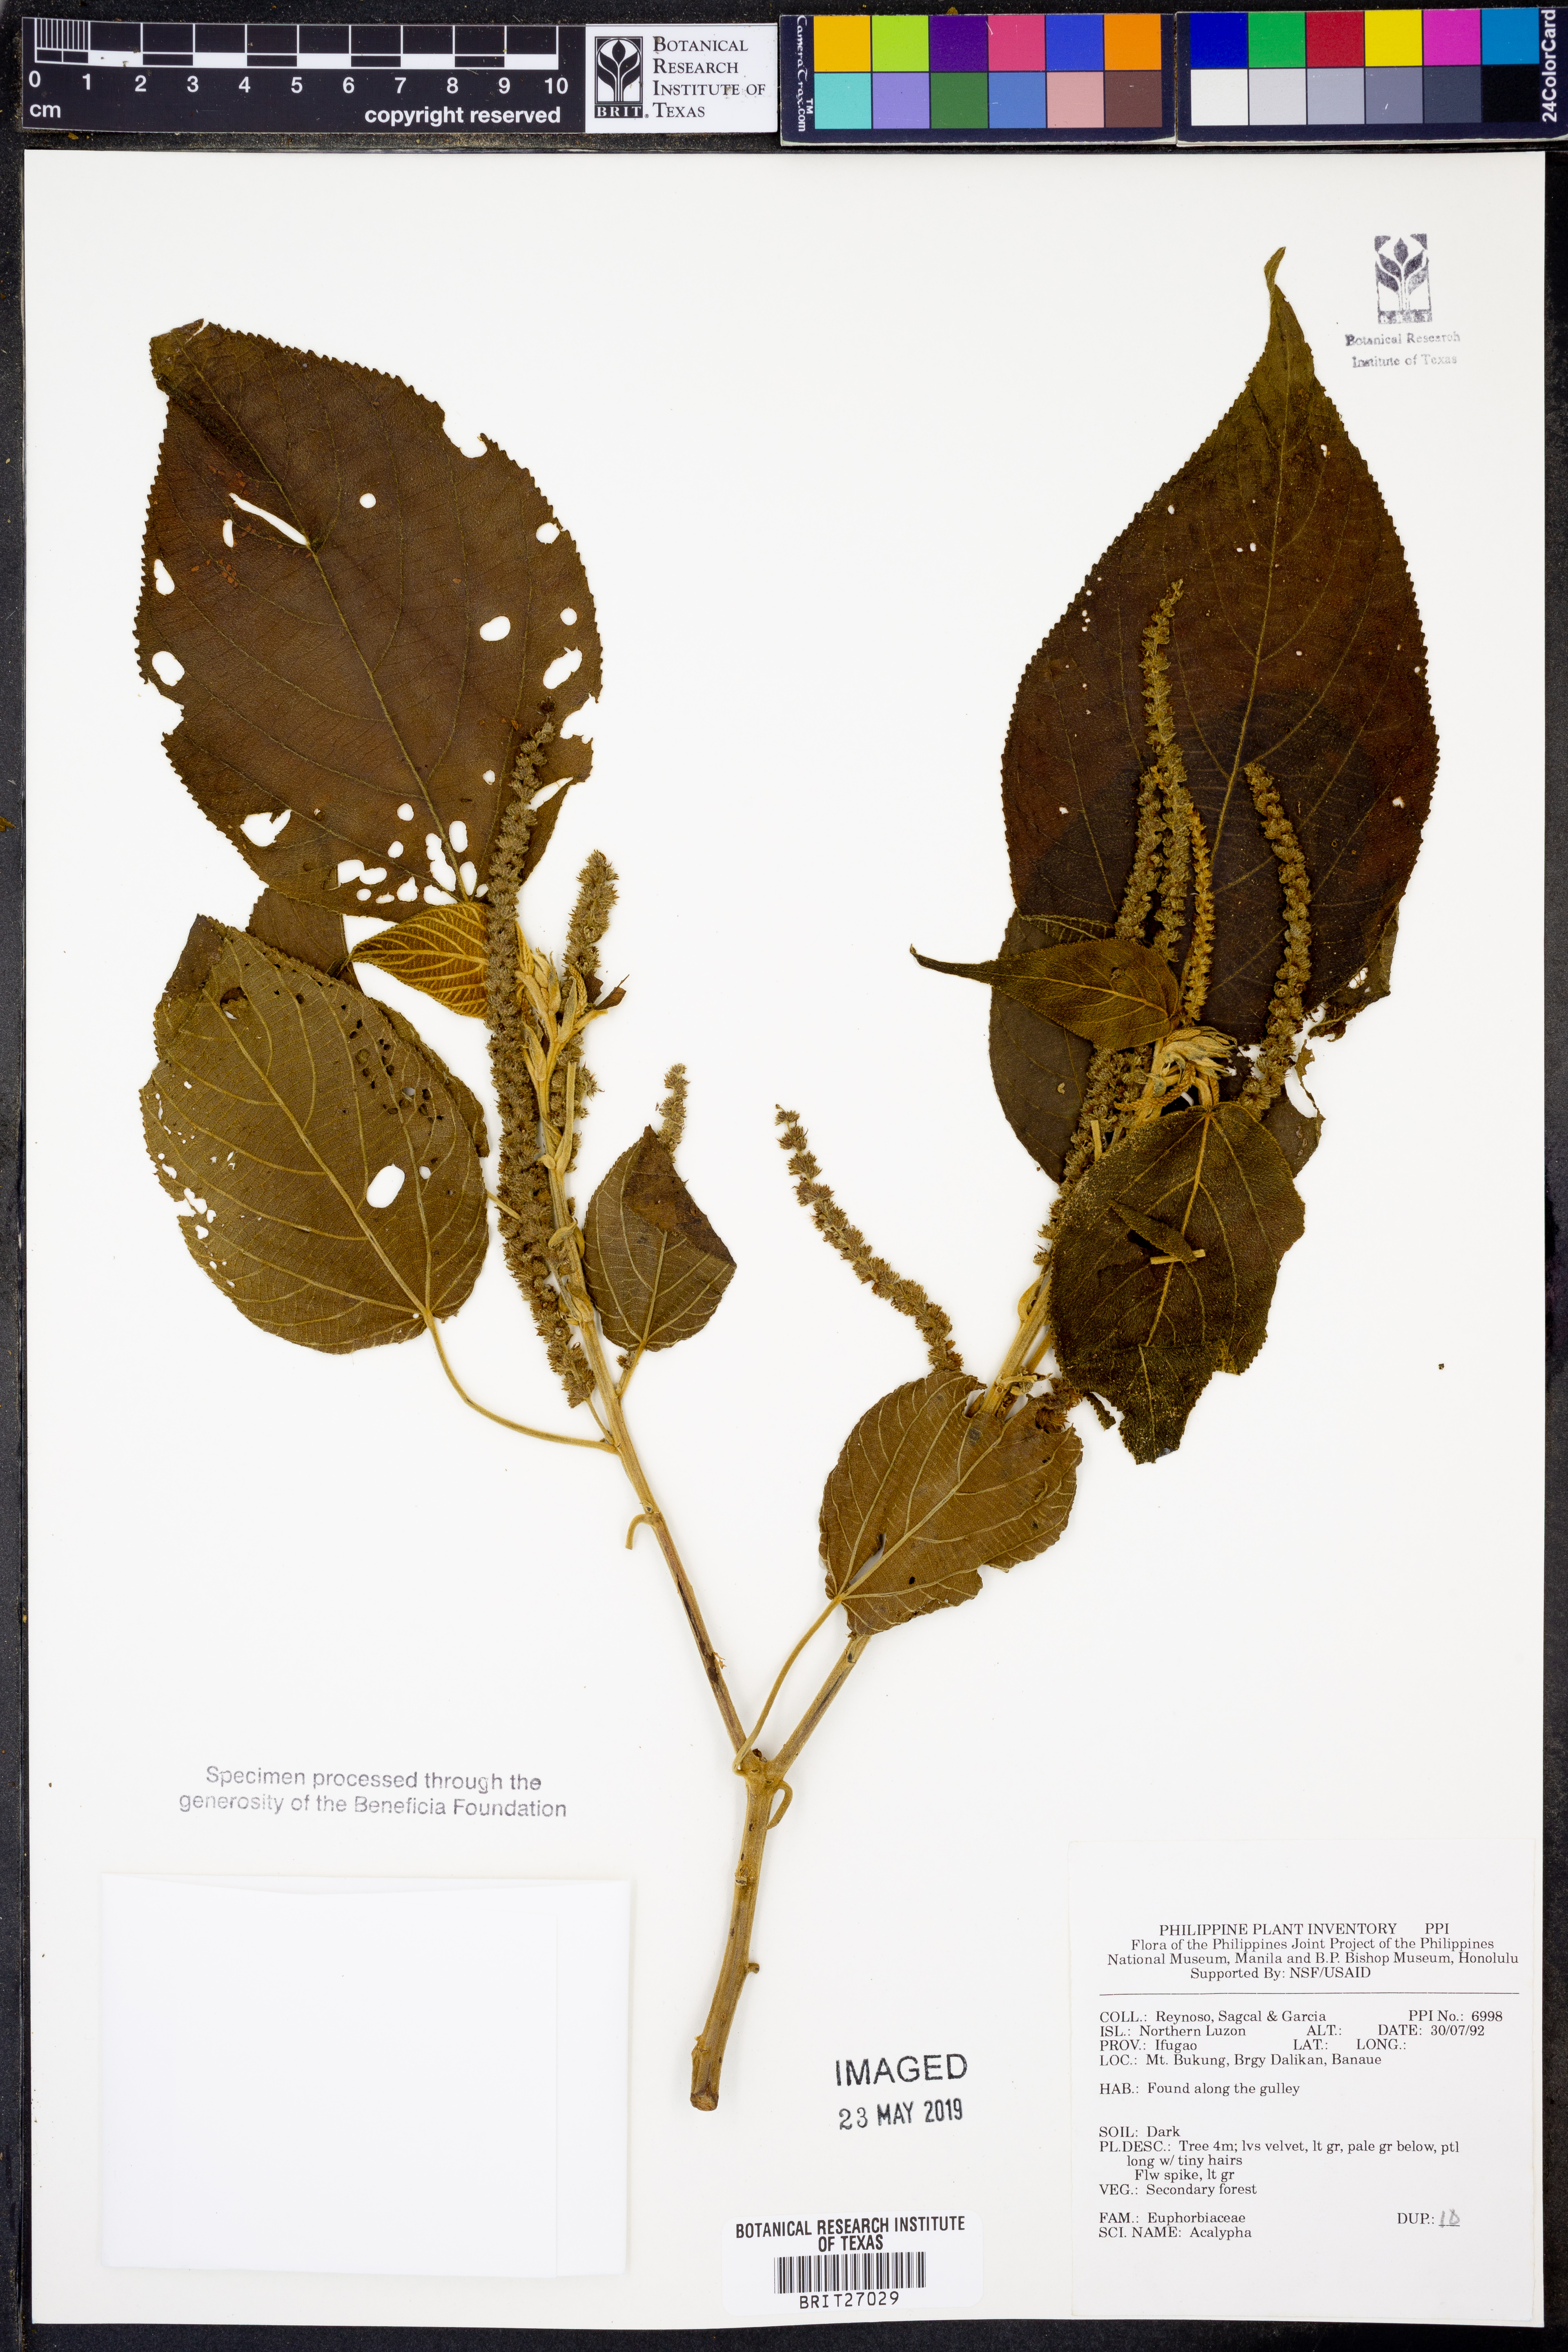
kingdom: Plantae
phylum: Tracheophyta
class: Magnoliopsida
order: Malpighiales
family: Euphorbiaceae
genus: Acalypha
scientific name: Acalypha
